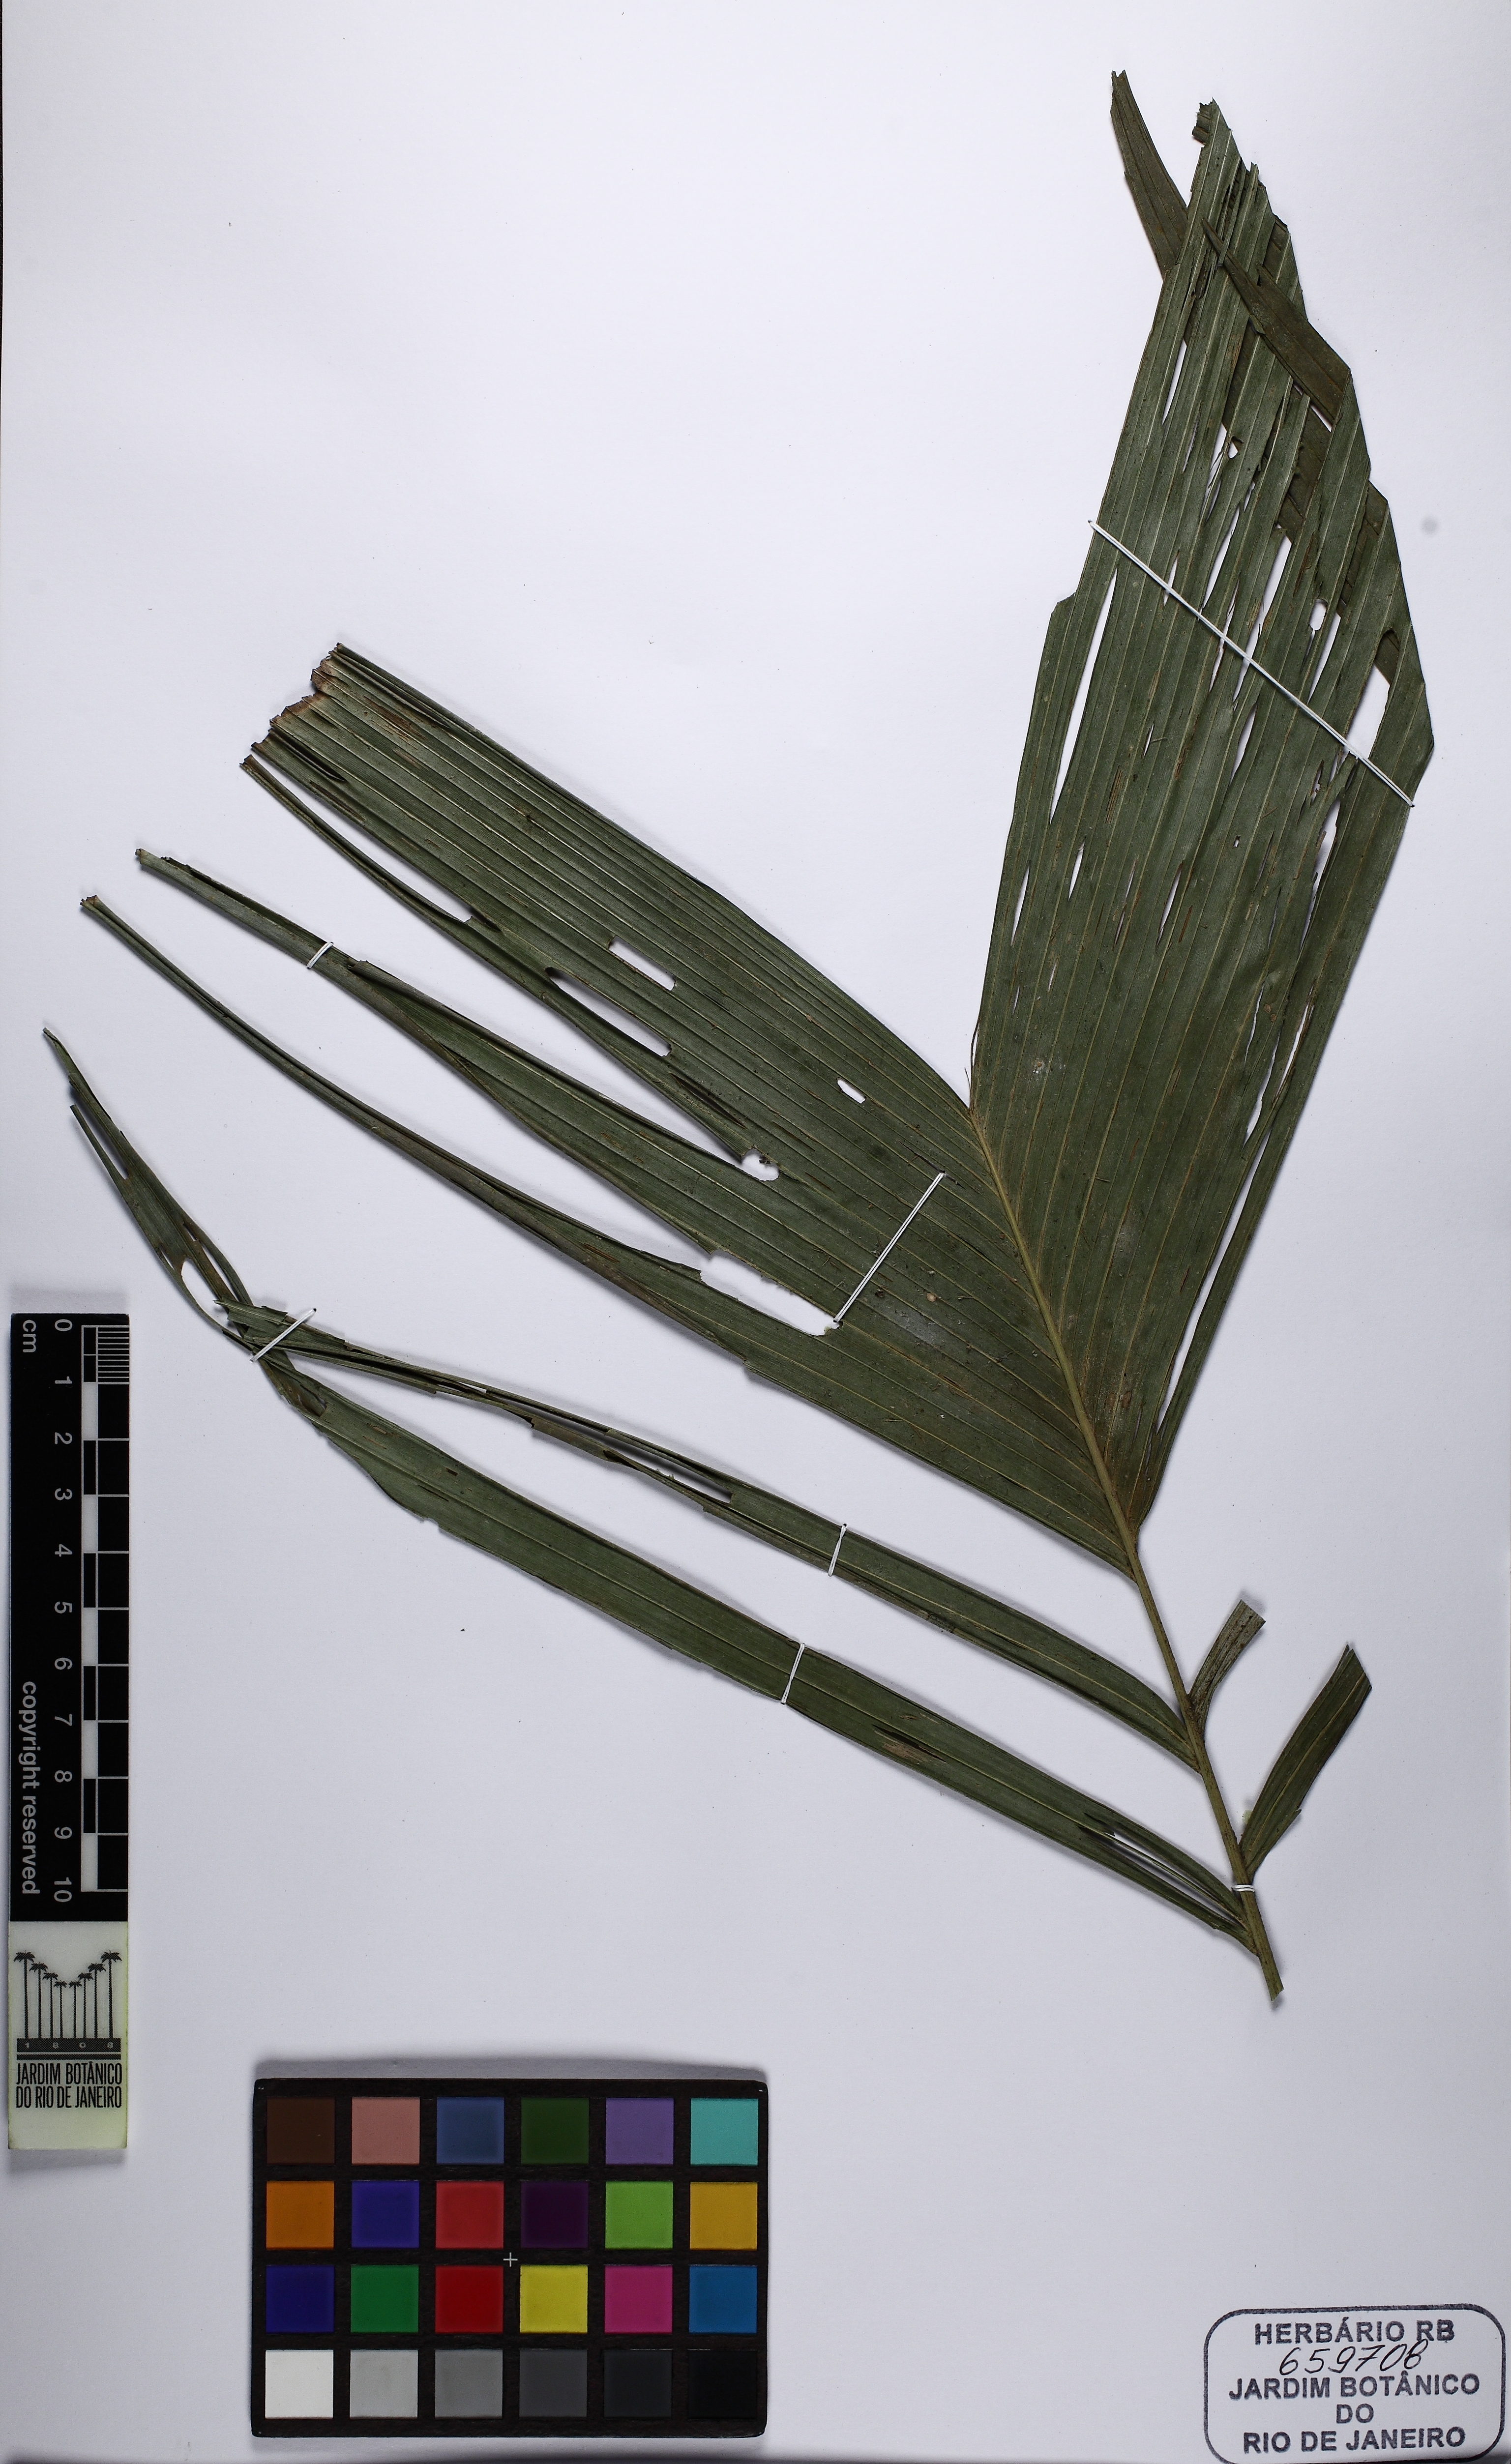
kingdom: Plantae
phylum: Tracheophyta
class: Liliopsida
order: Arecales
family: Arecaceae
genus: Geonoma
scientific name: Geonoma schottiana
